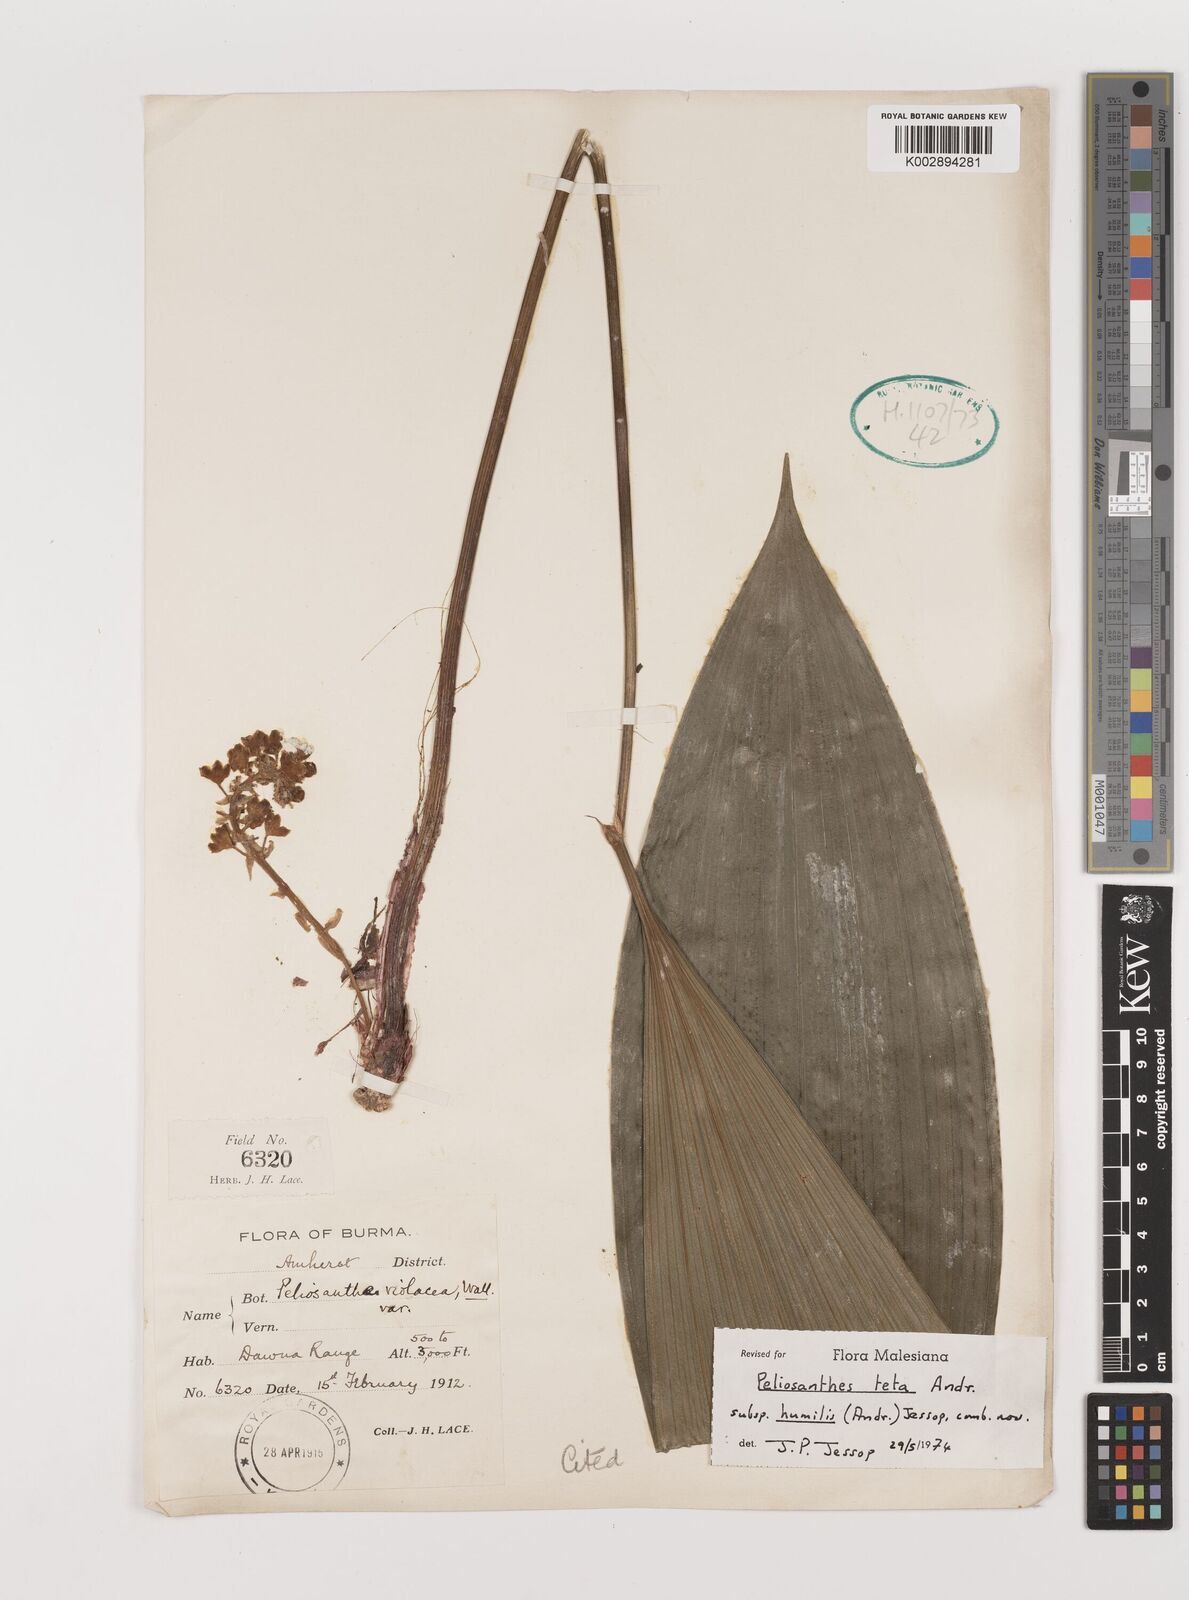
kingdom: Plantae
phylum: Tracheophyta
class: Liliopsida
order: Asparagales
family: Asparagaceae
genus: Peliosanthes
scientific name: Peliosanthes teta
